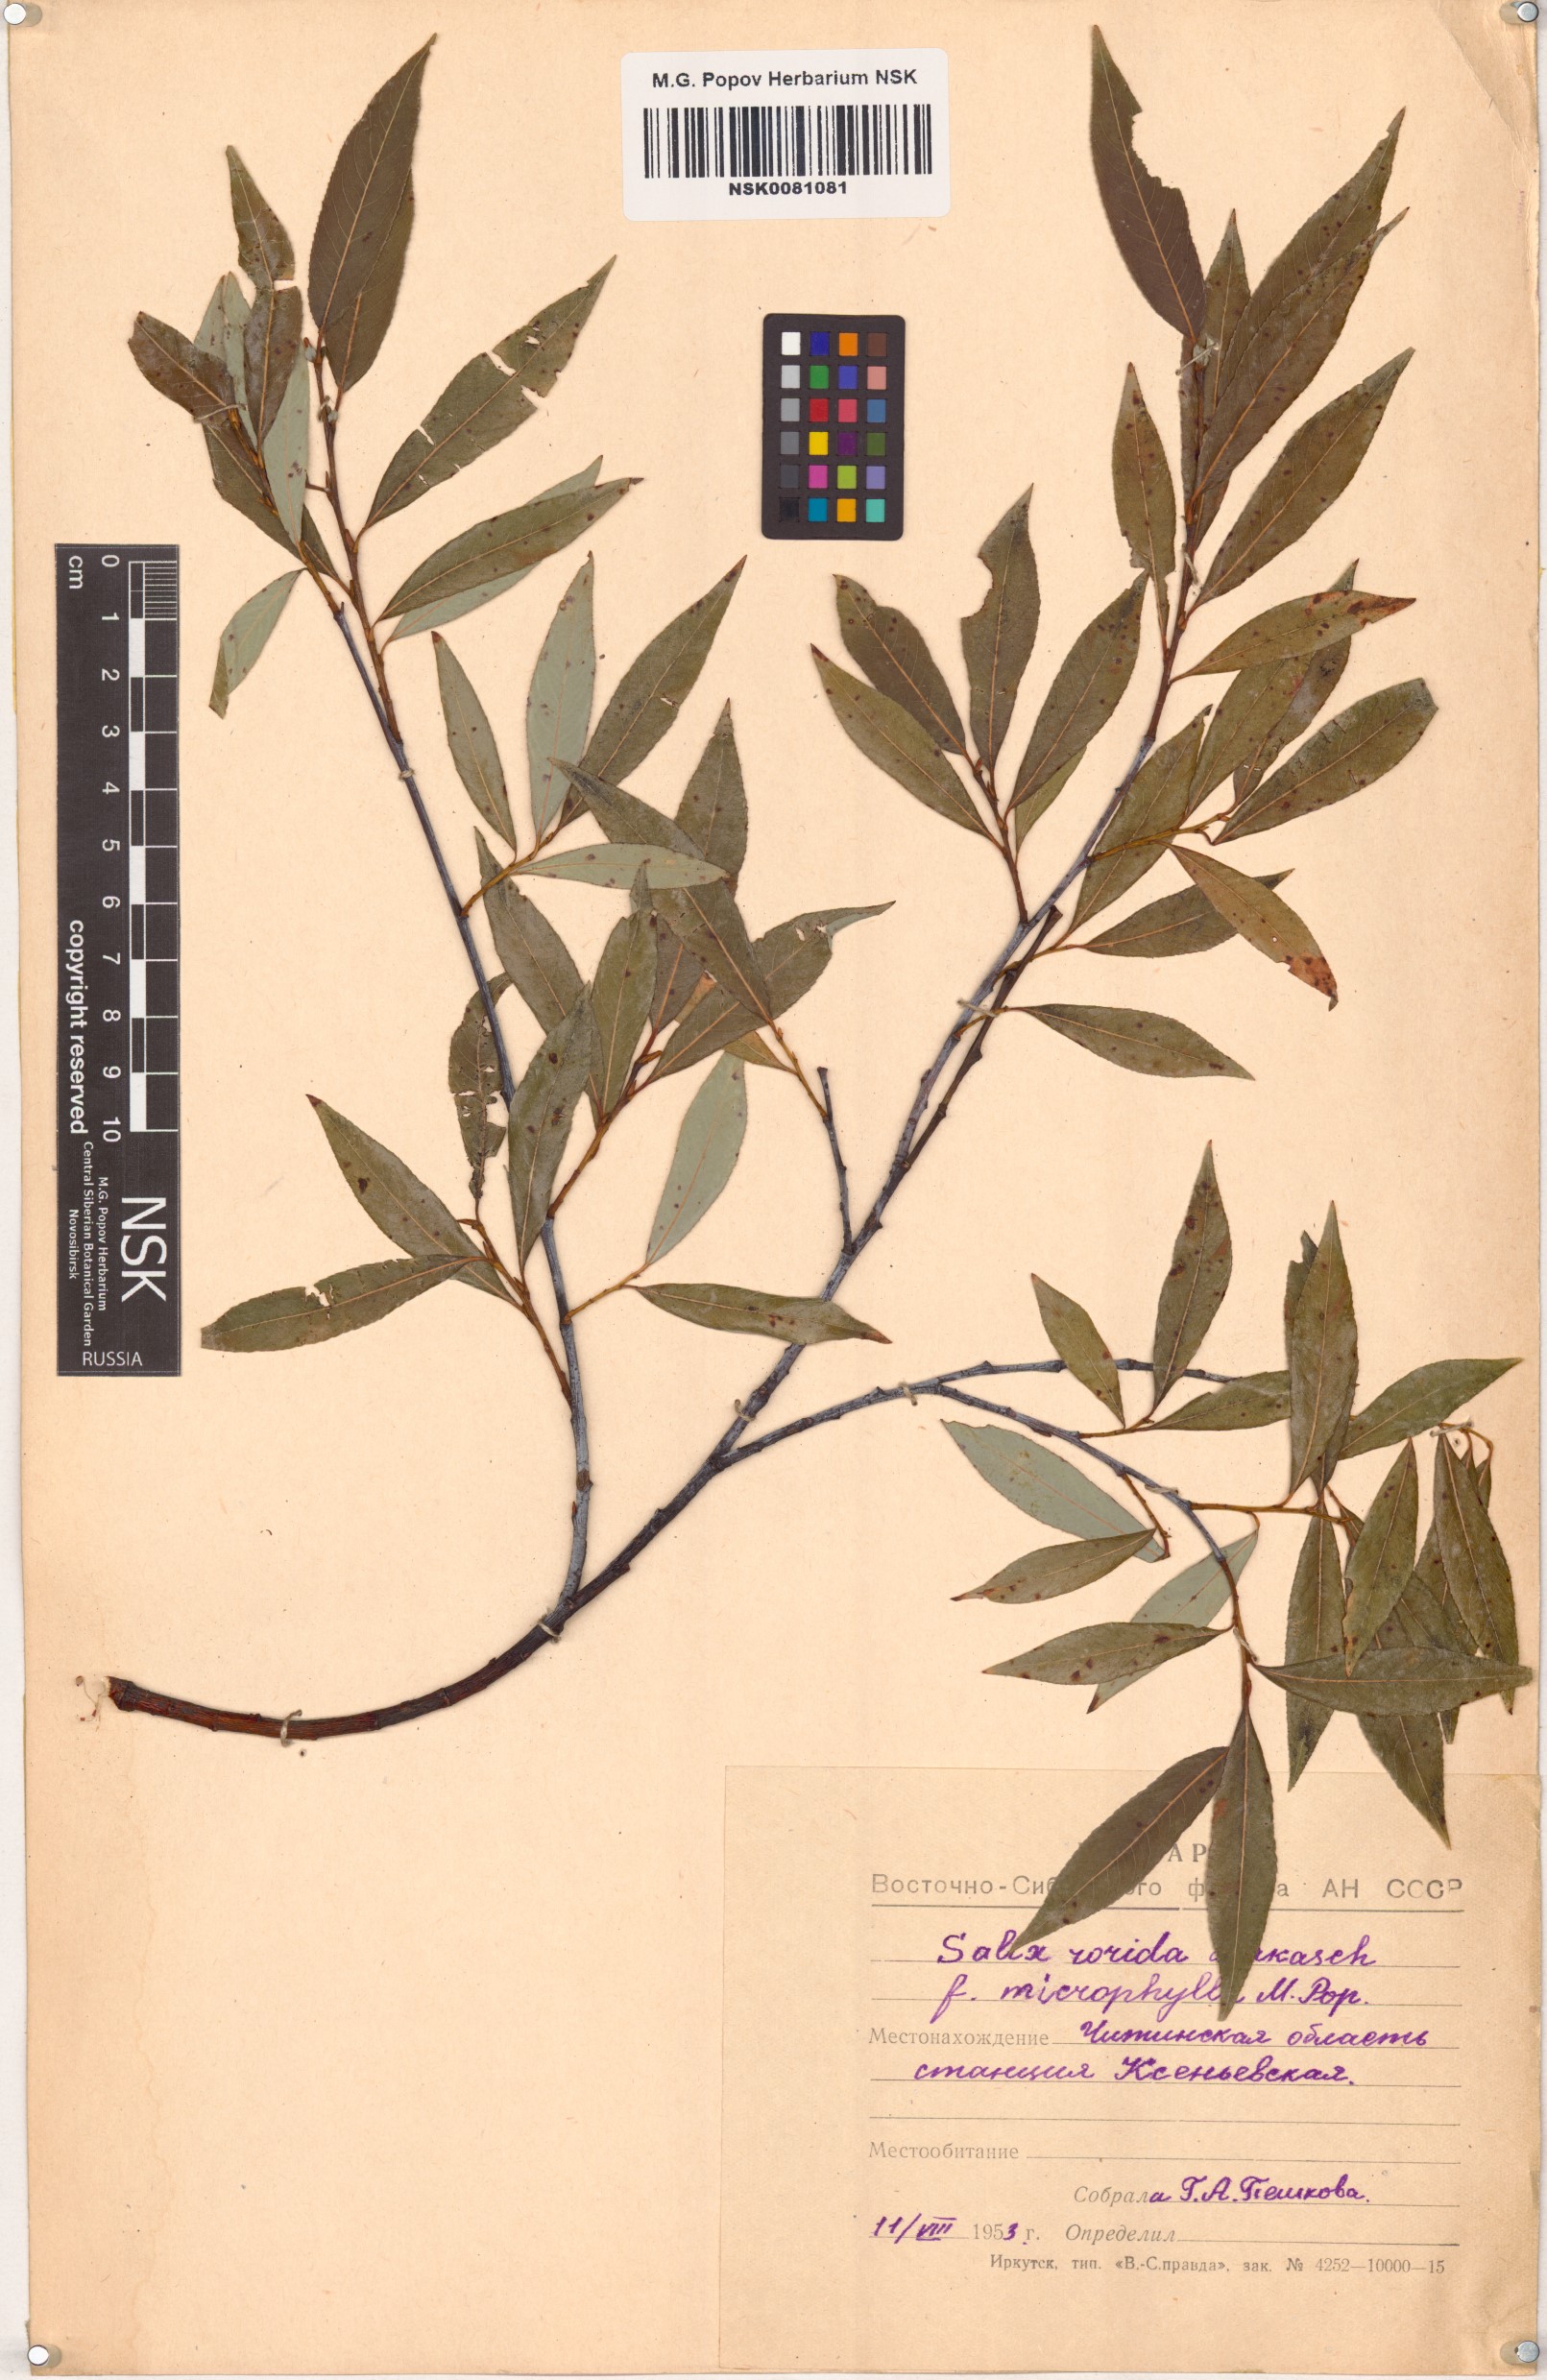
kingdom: Plantae
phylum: Tracheophyta
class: Magnoliopsida
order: Malpighiales
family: Salicaceae
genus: Salix
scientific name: Salix rorida
